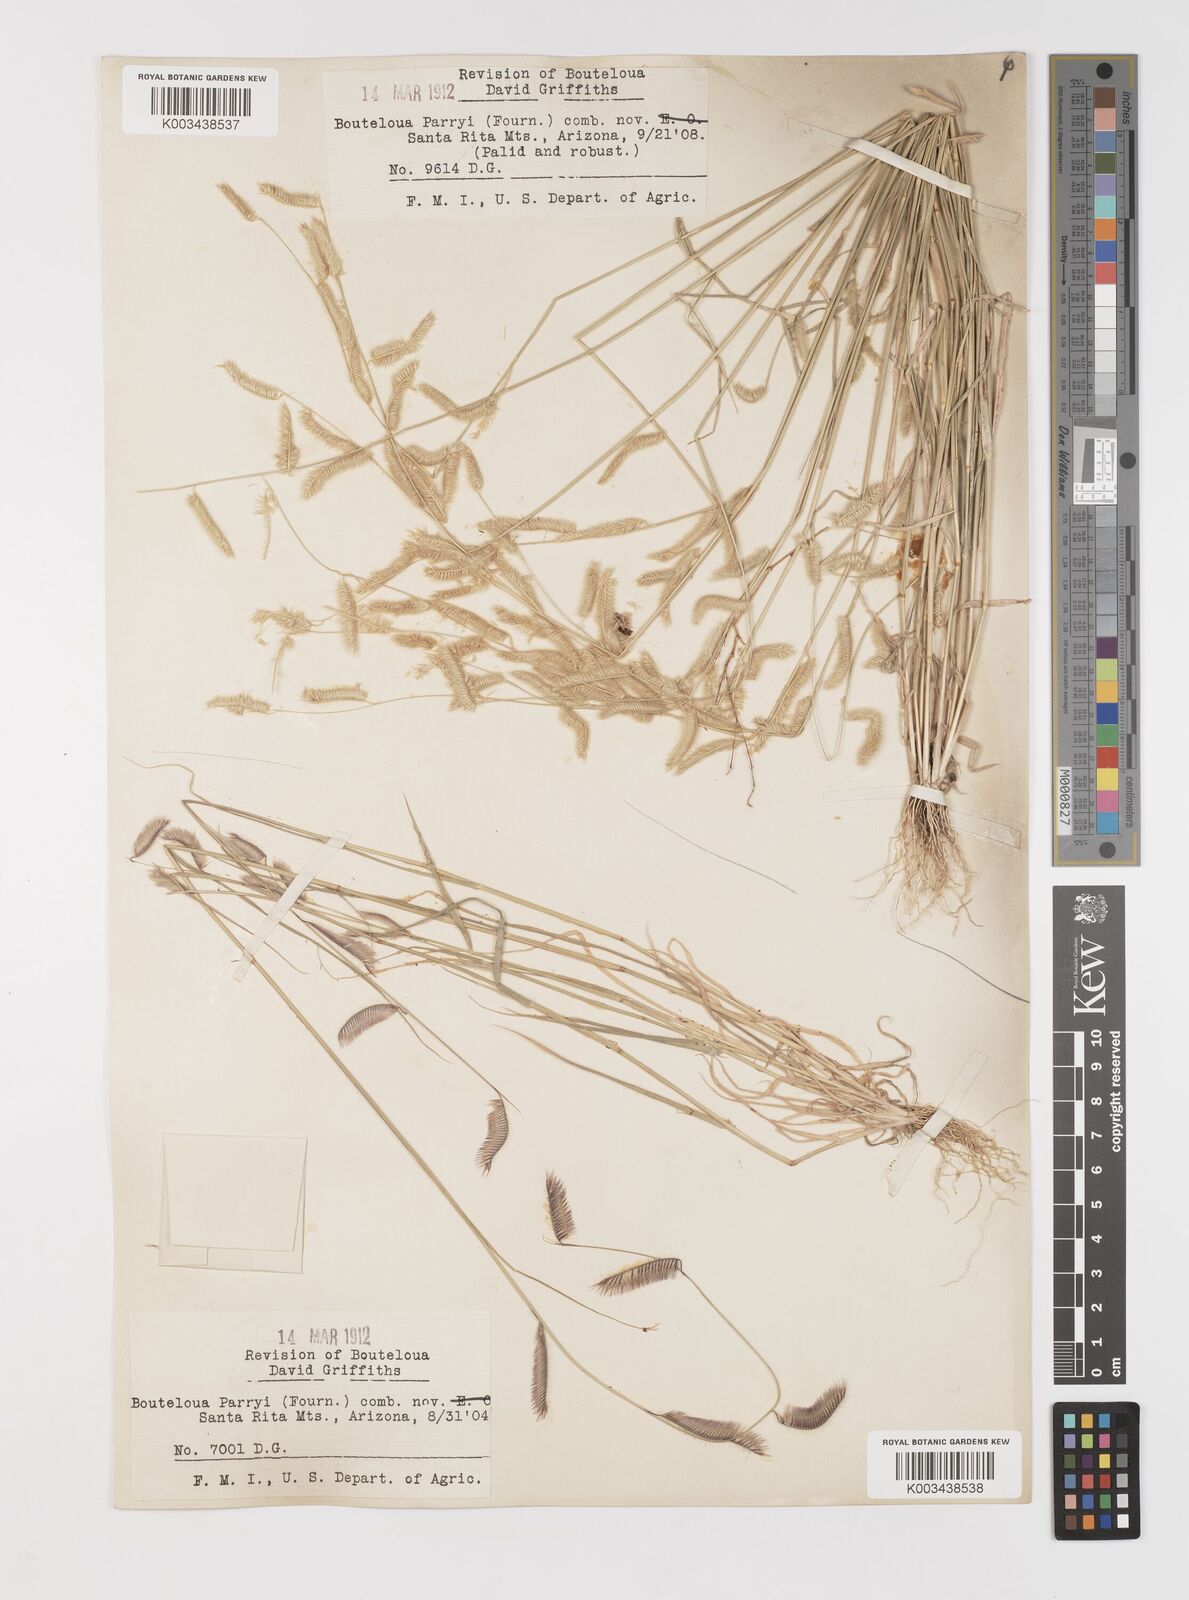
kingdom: Plantae
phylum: Tracheophyta
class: Liliopsida
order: Poales
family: Poaceae
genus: Bouteloua
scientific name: Bouteloua parryi
